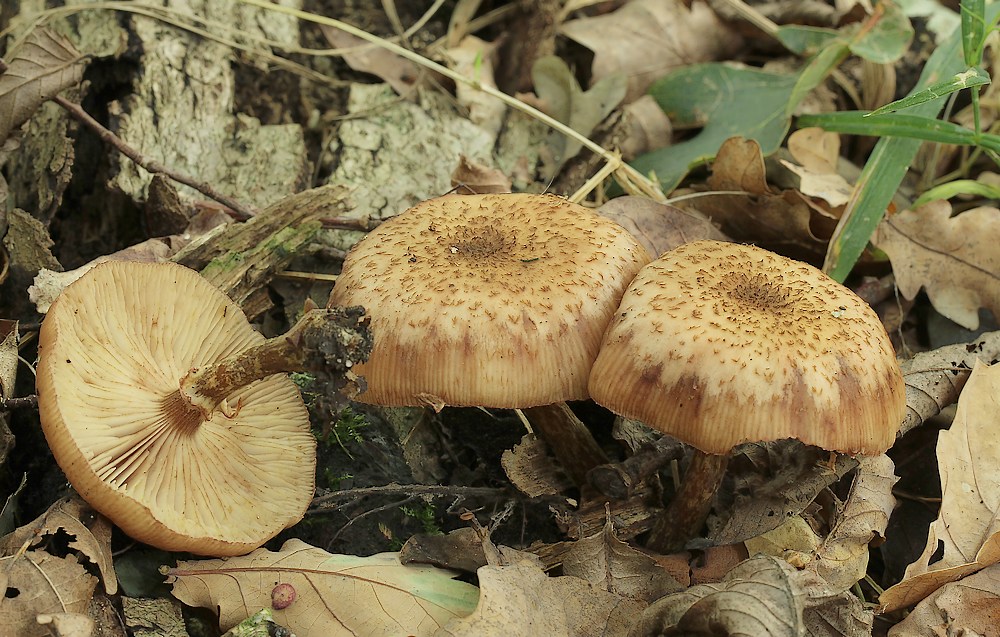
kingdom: Fungi
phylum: Basidiomycota
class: Agaricomycetes
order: Agaricales
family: Physalacriaceae
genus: Armillaria
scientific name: Armillaria
